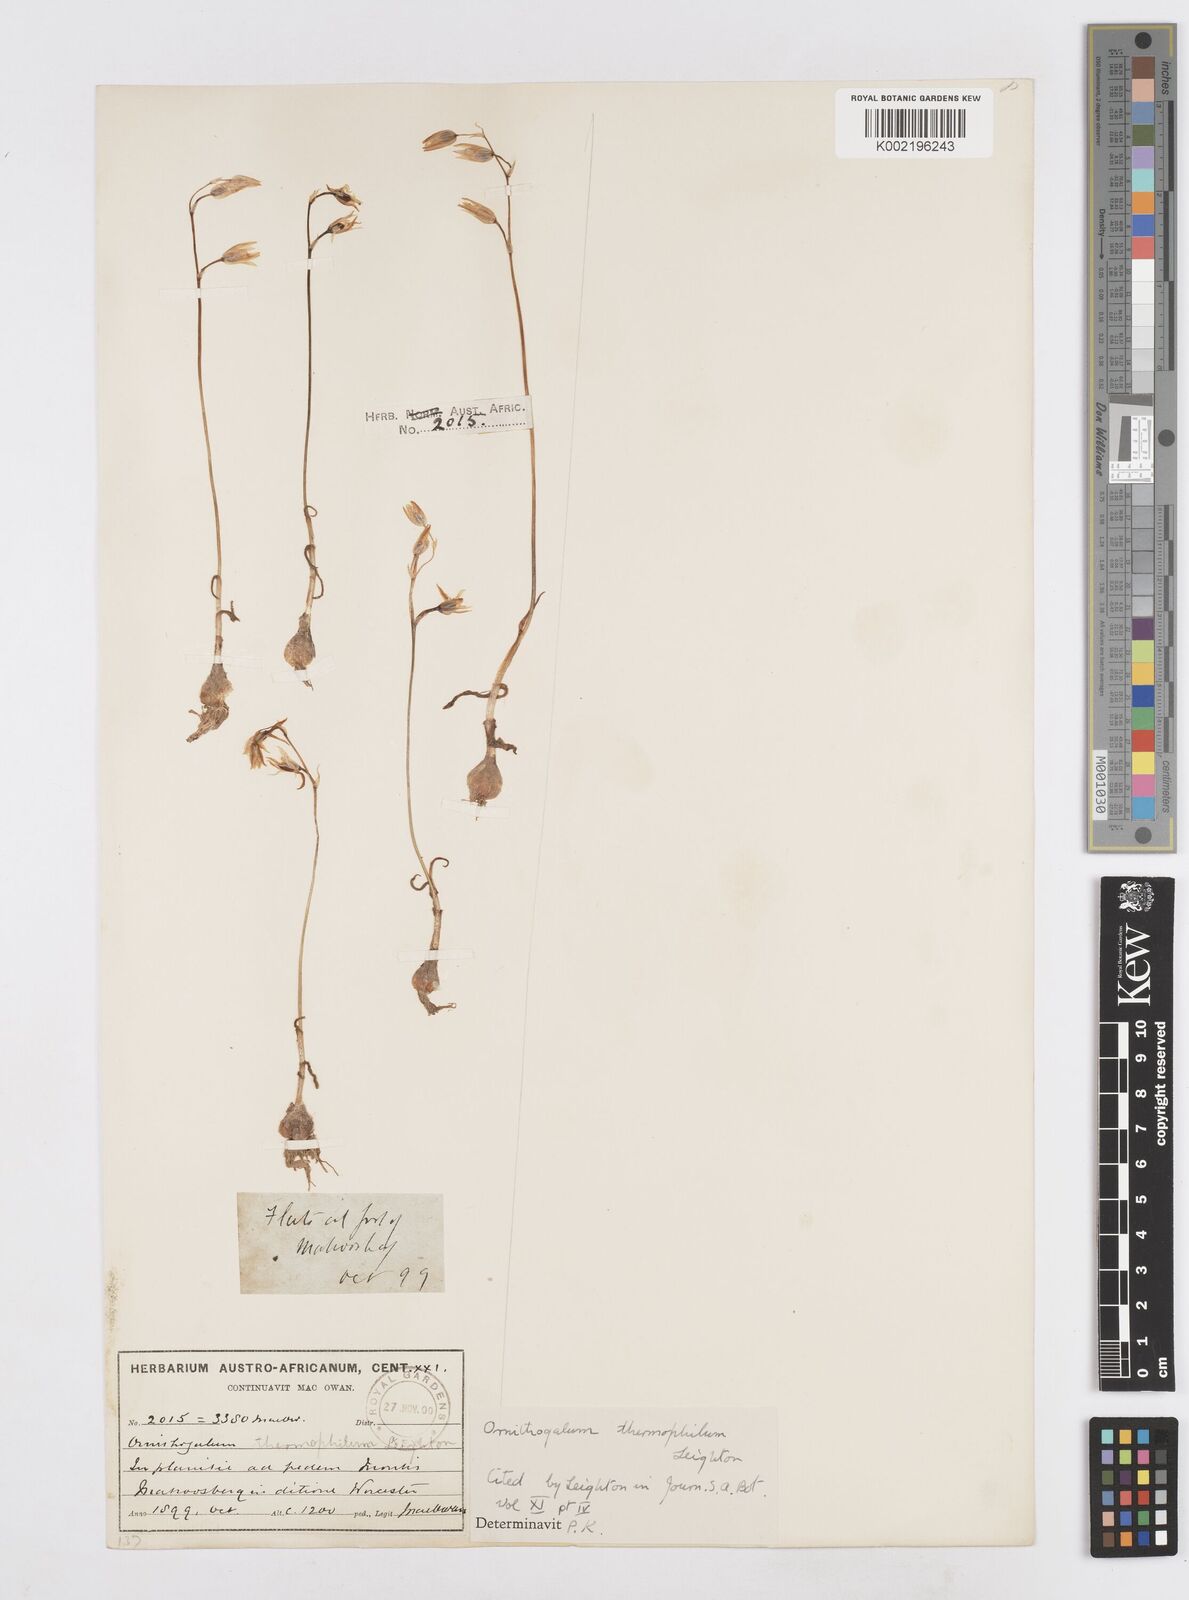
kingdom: Plantae
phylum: Tracheophyta
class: Liliopsida
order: Asparagales
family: Asparagaceae
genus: Ornithogalum
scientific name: Ornithogalum thermophilum
